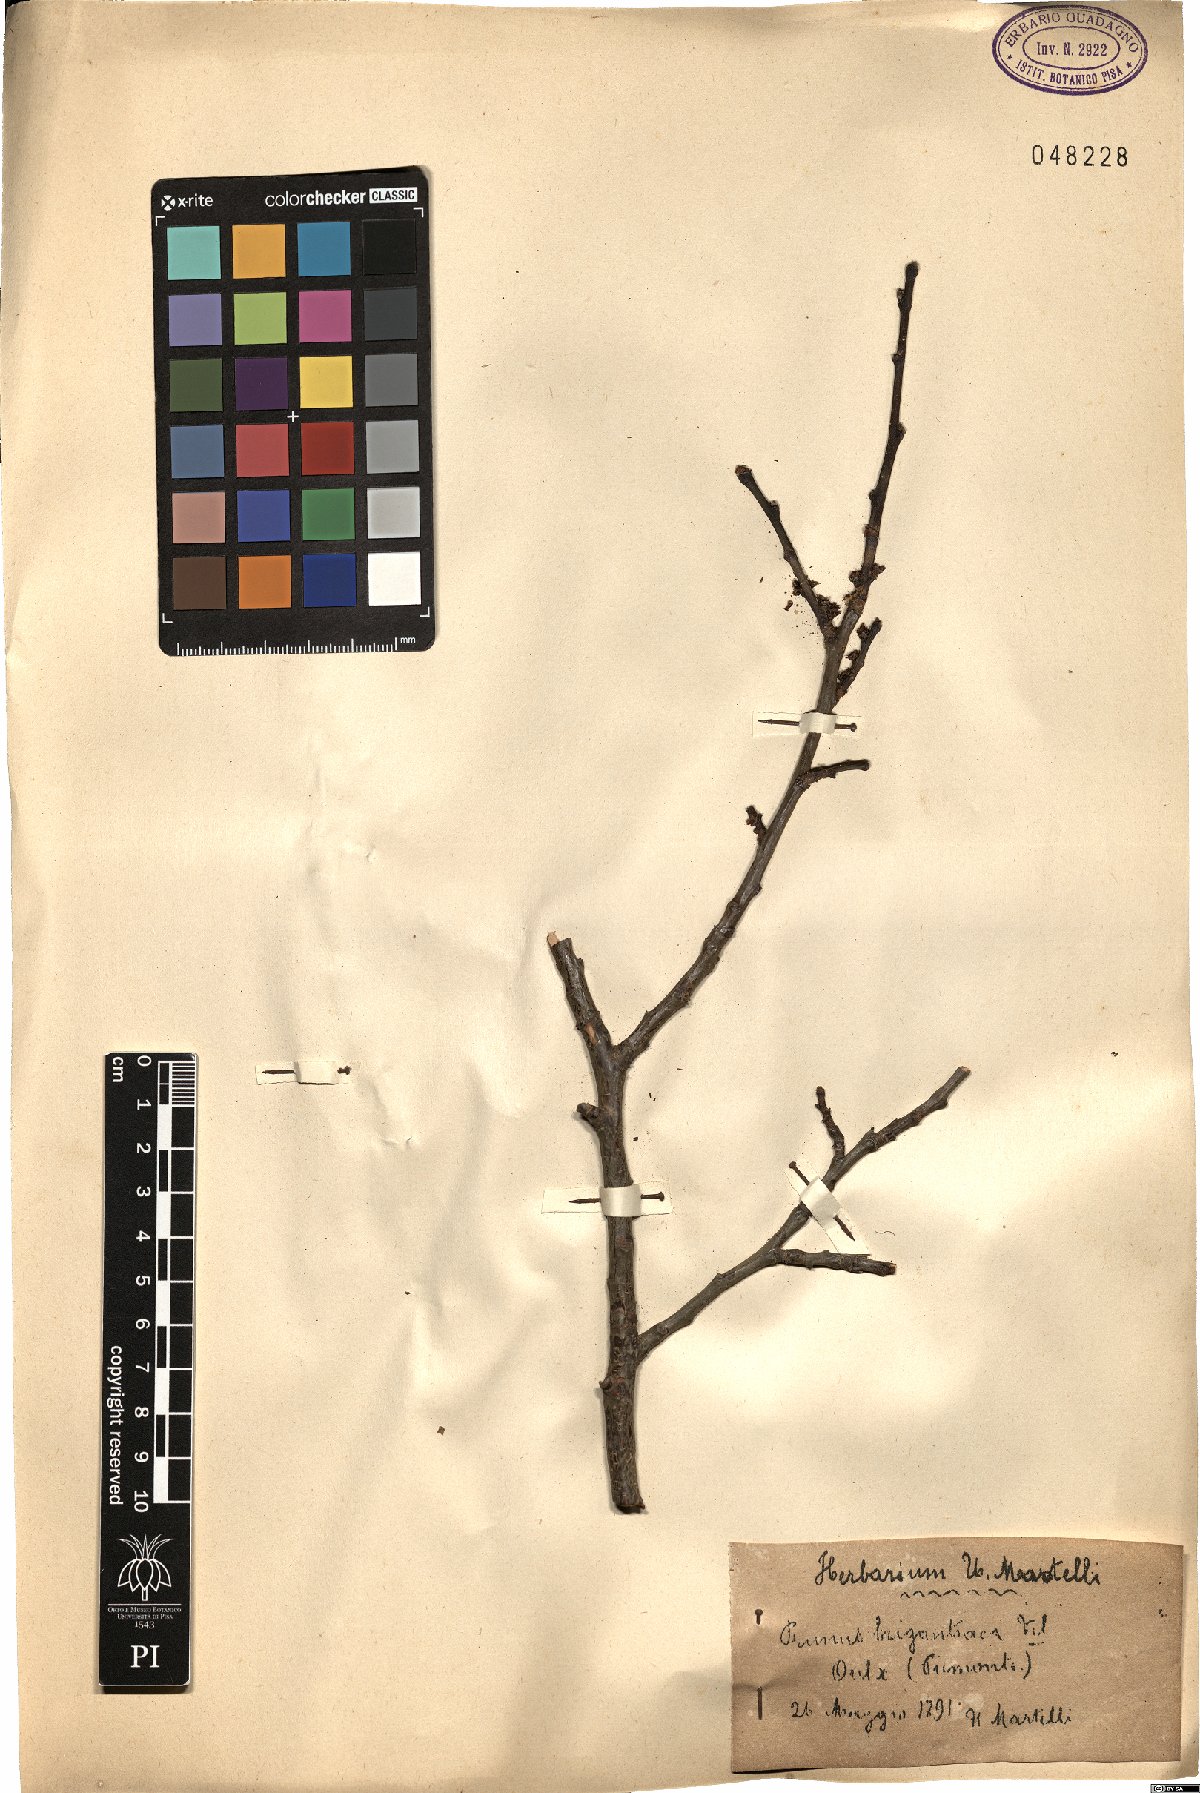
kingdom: Plantae
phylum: Tracheophyta
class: Magnoliopsida
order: Rosales
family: Rosaceae
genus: Prunus
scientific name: Prunus brigantina
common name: Briançon apricot
